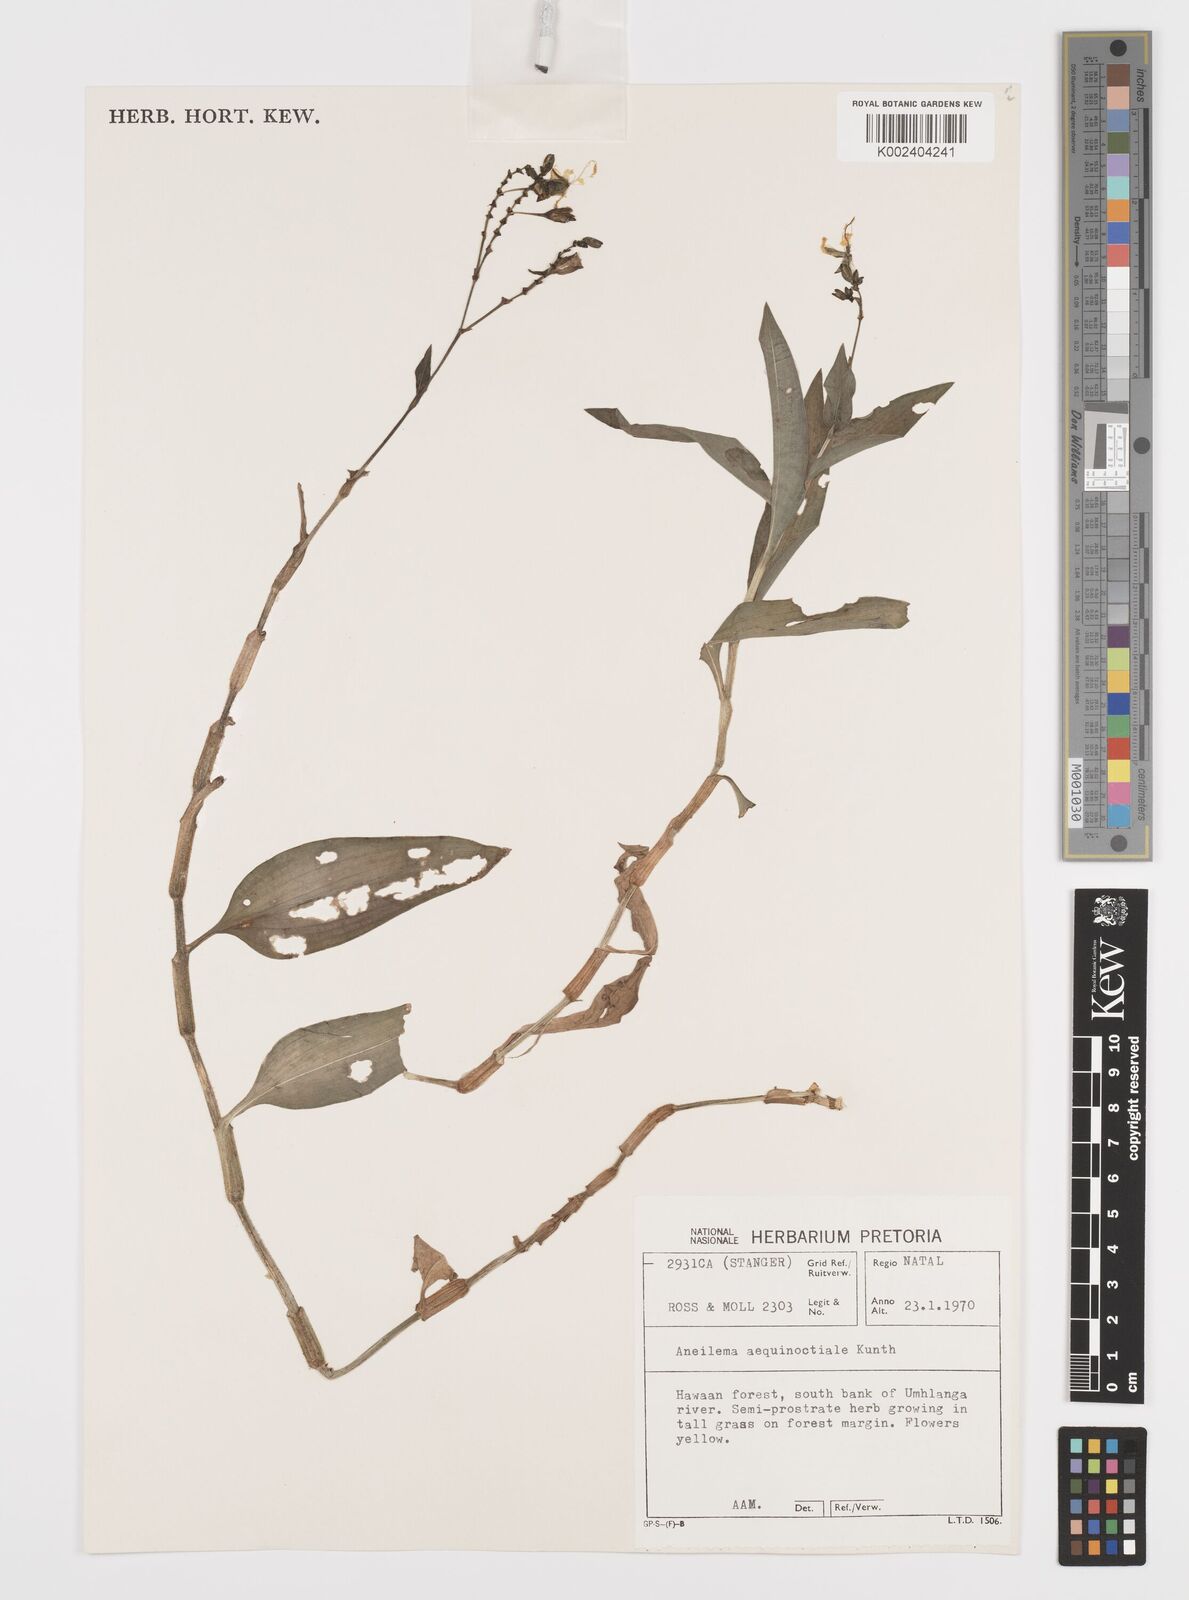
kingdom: Plantae
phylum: Tracheophyta
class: Liliopsida
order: Commelinales
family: Commelinaceae
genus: Aneilema
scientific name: Aneilema aequinoctiale
